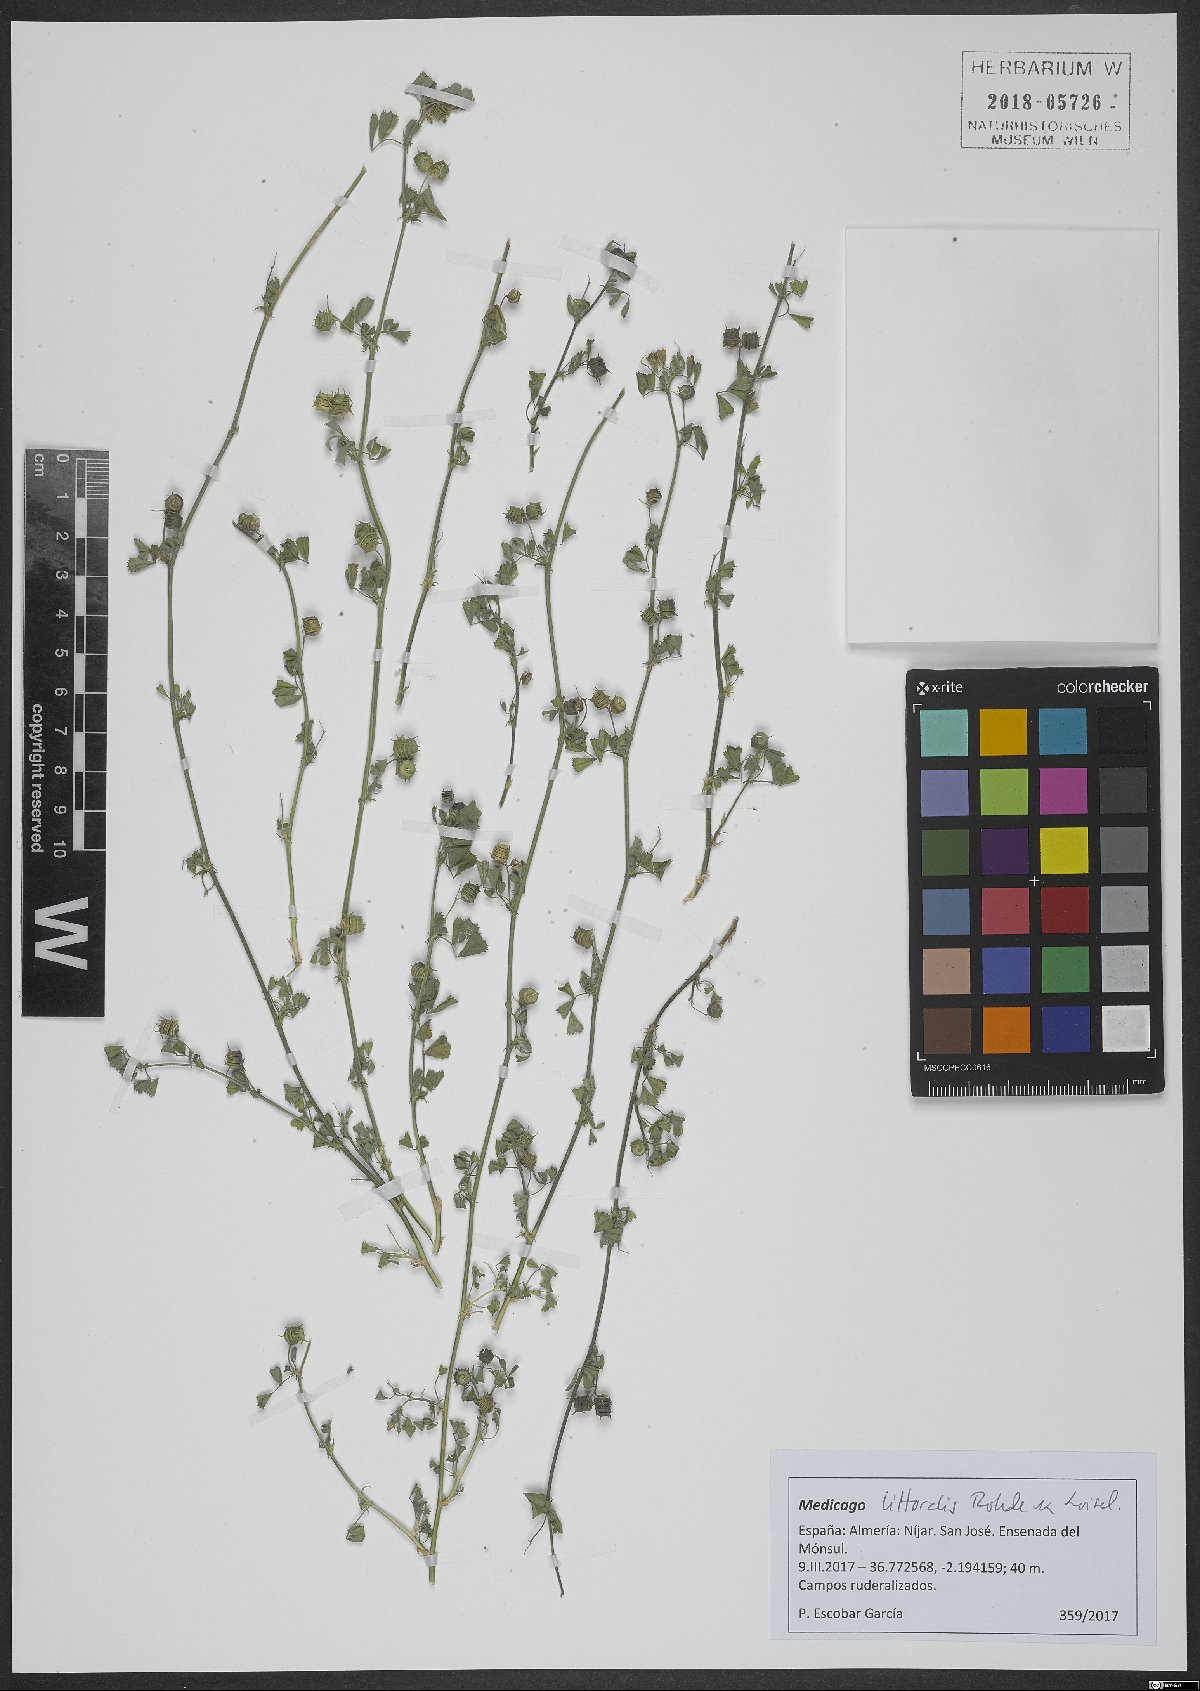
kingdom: Plantae
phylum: Tracheophyta
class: Magnoliopsida
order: Fabales
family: Fabaceae
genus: Medicago
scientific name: Medicago littoralis
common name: Shore medick
